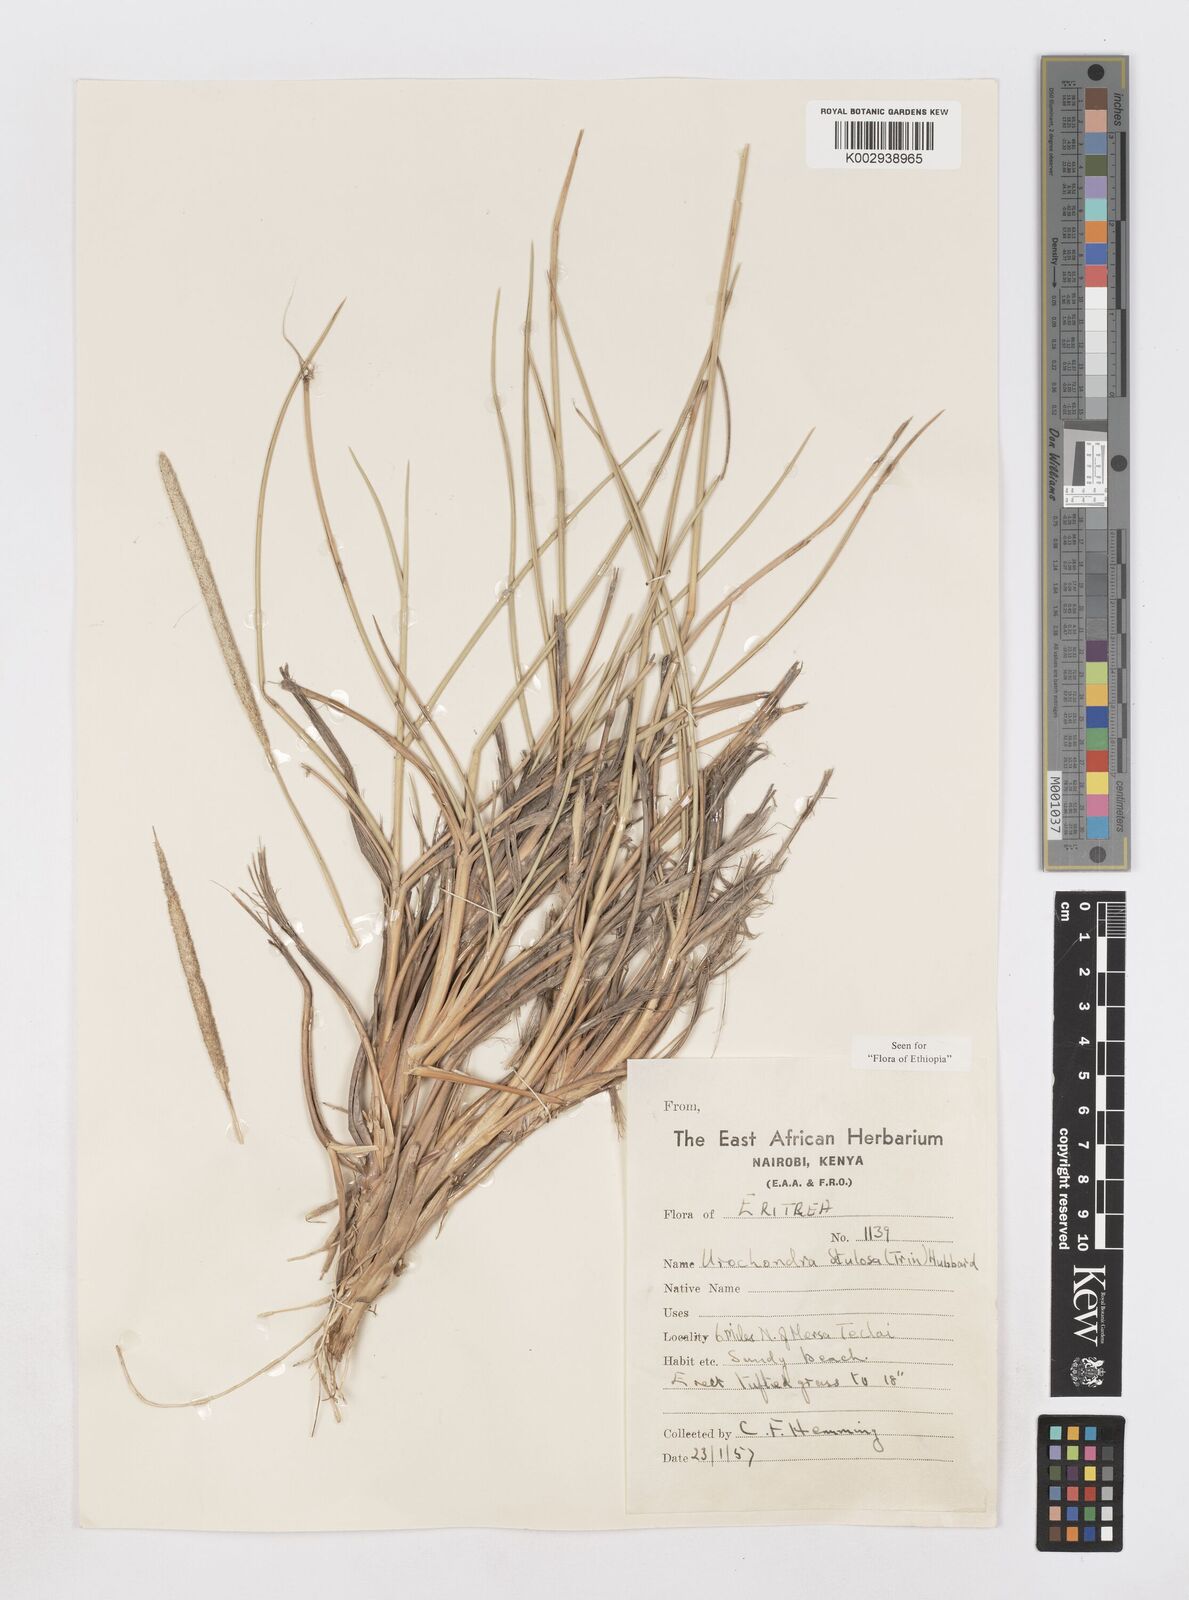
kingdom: Plantae
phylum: Tracheophyta
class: Liliopsida
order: Poales
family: Poaceae
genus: Urochondra
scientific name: Urochondra setulosa
